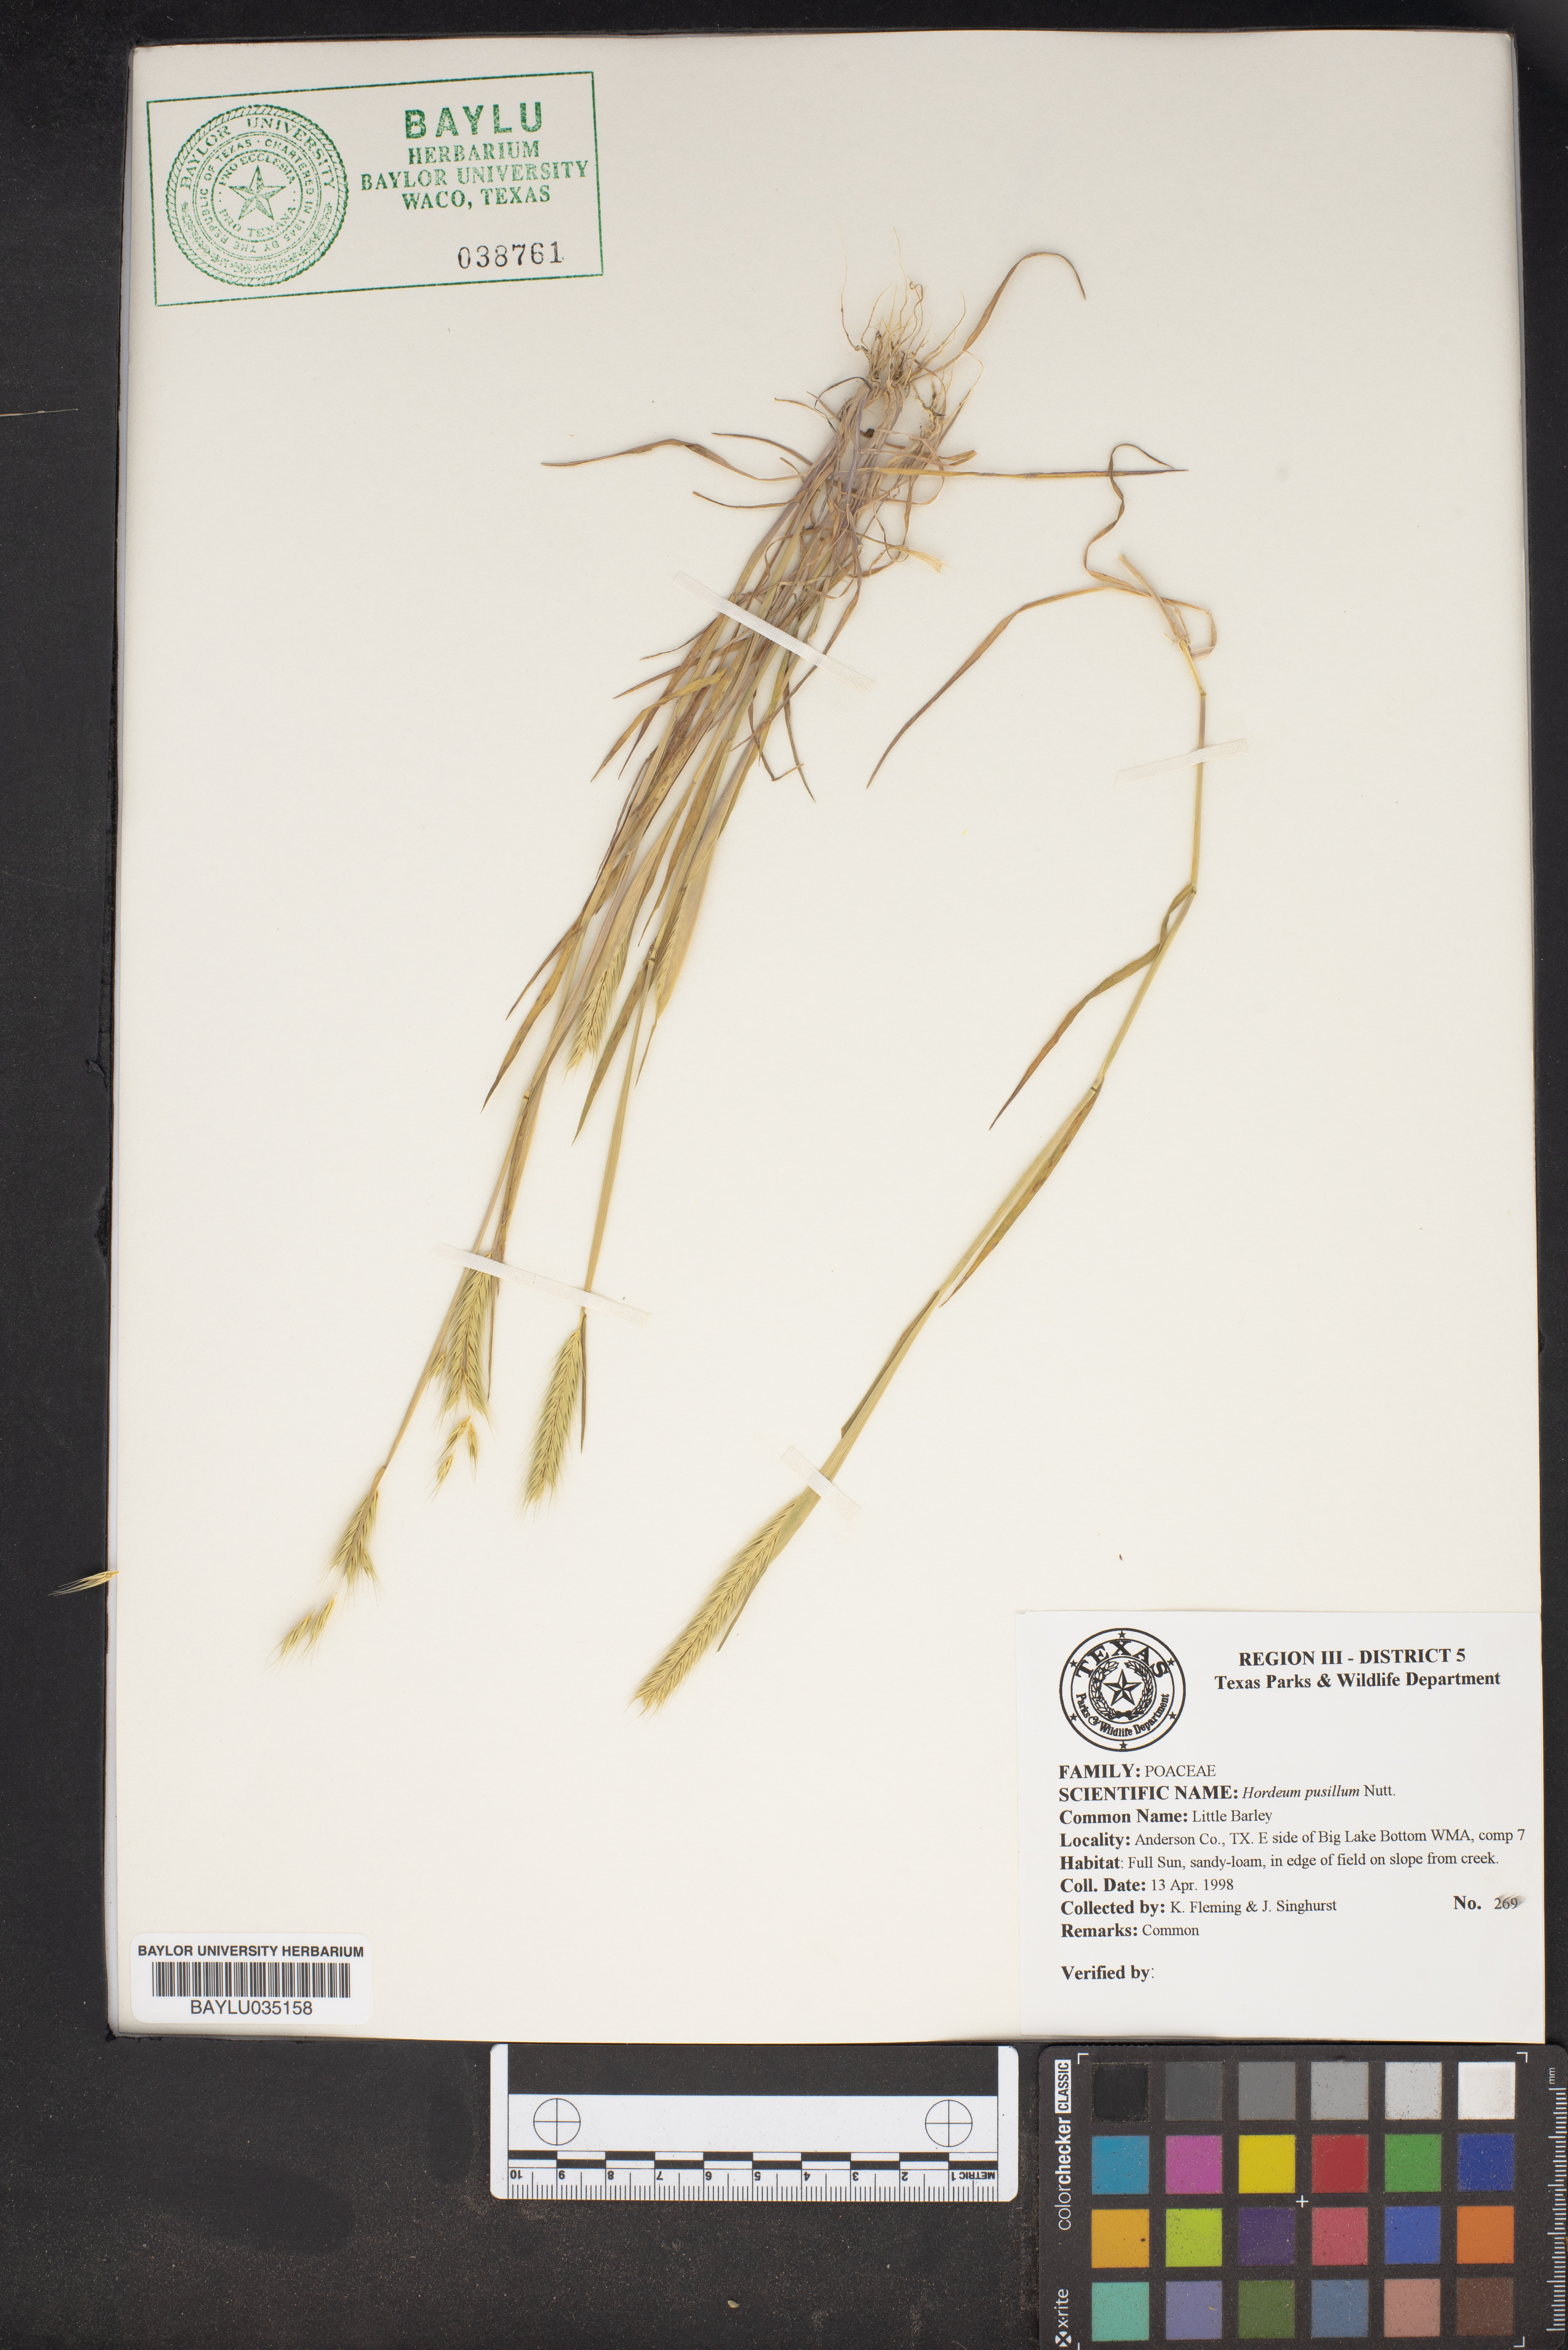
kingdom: Plantae
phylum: Tracheophyta
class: Liliopsida
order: Poales
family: Poaceae
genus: Hordeum
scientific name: Hordeum pusillum
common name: Little barley
